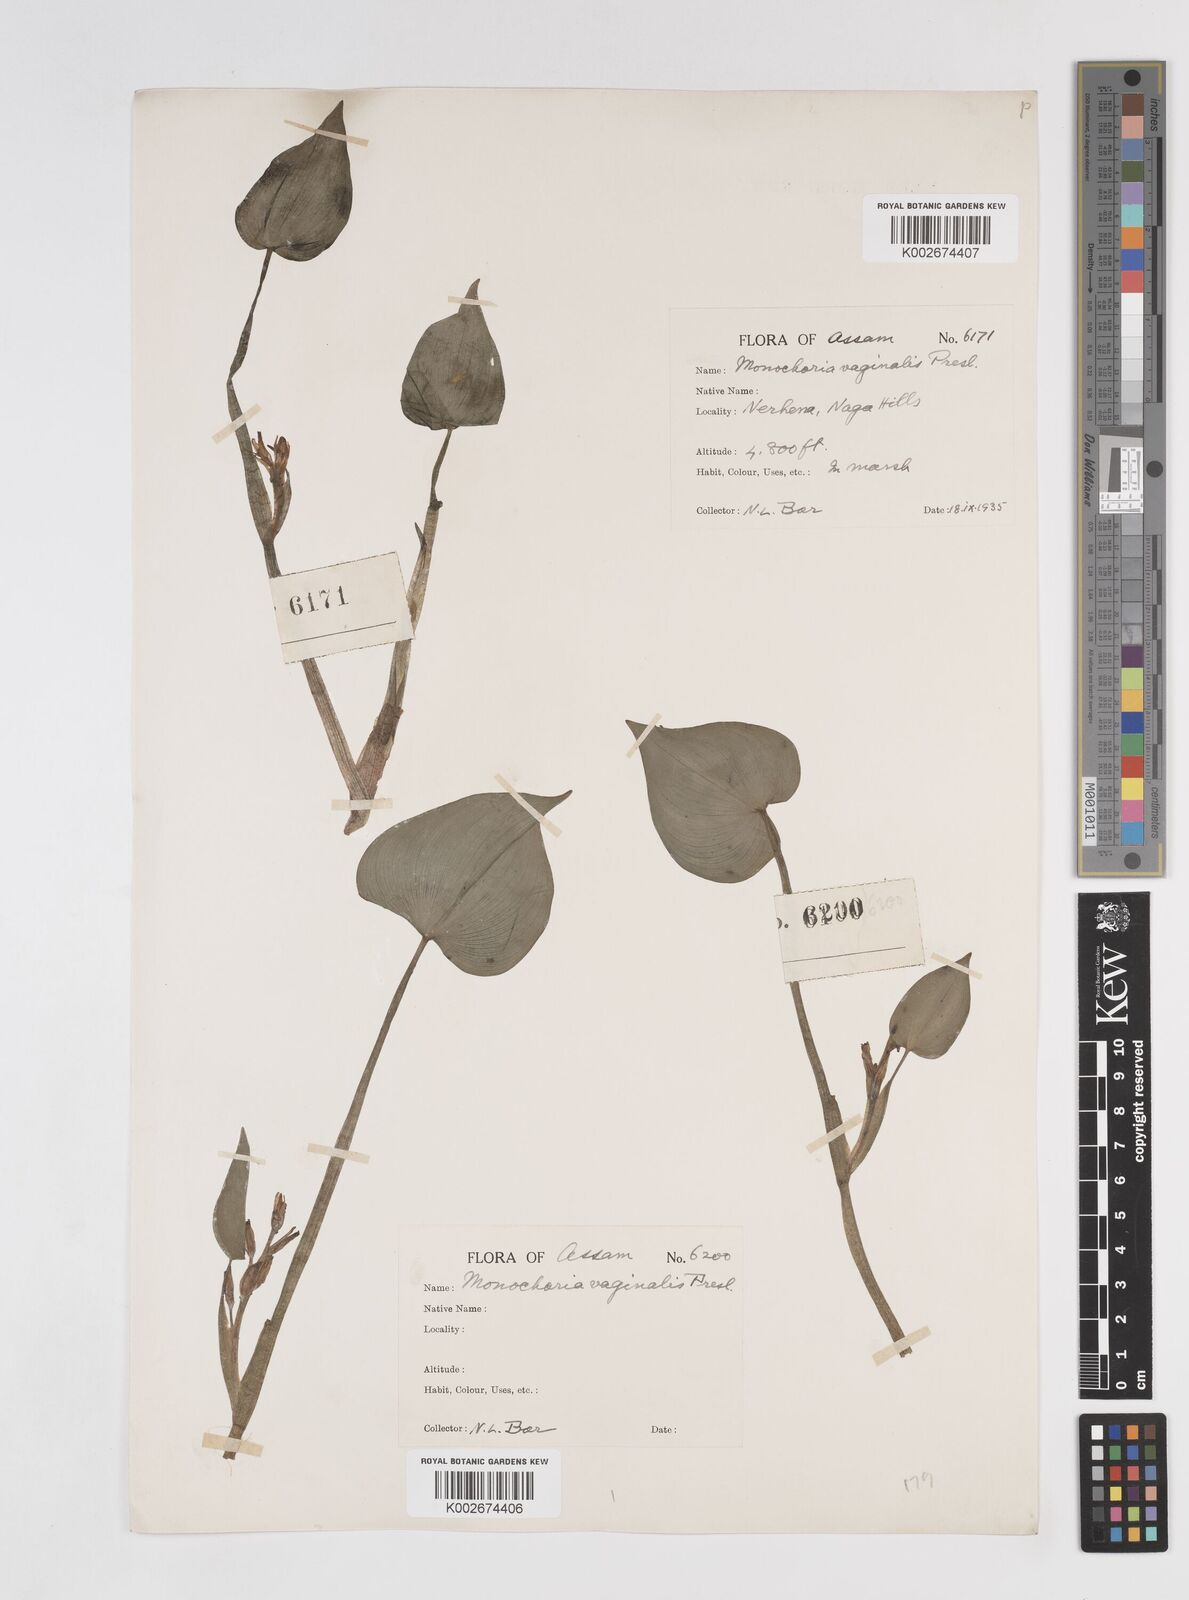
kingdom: Plantae
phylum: Tracheophyta
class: Liliopsida
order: Commelinales
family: Pontederiaceae
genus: Pontederia
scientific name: Pontederia vaginalis
